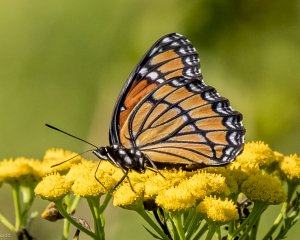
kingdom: Animalia
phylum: Arthropoda
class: Insecta
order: Lepidoptera
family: Nymphalidae
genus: Limenitis
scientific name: Limenitis archippus
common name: Viceroy
